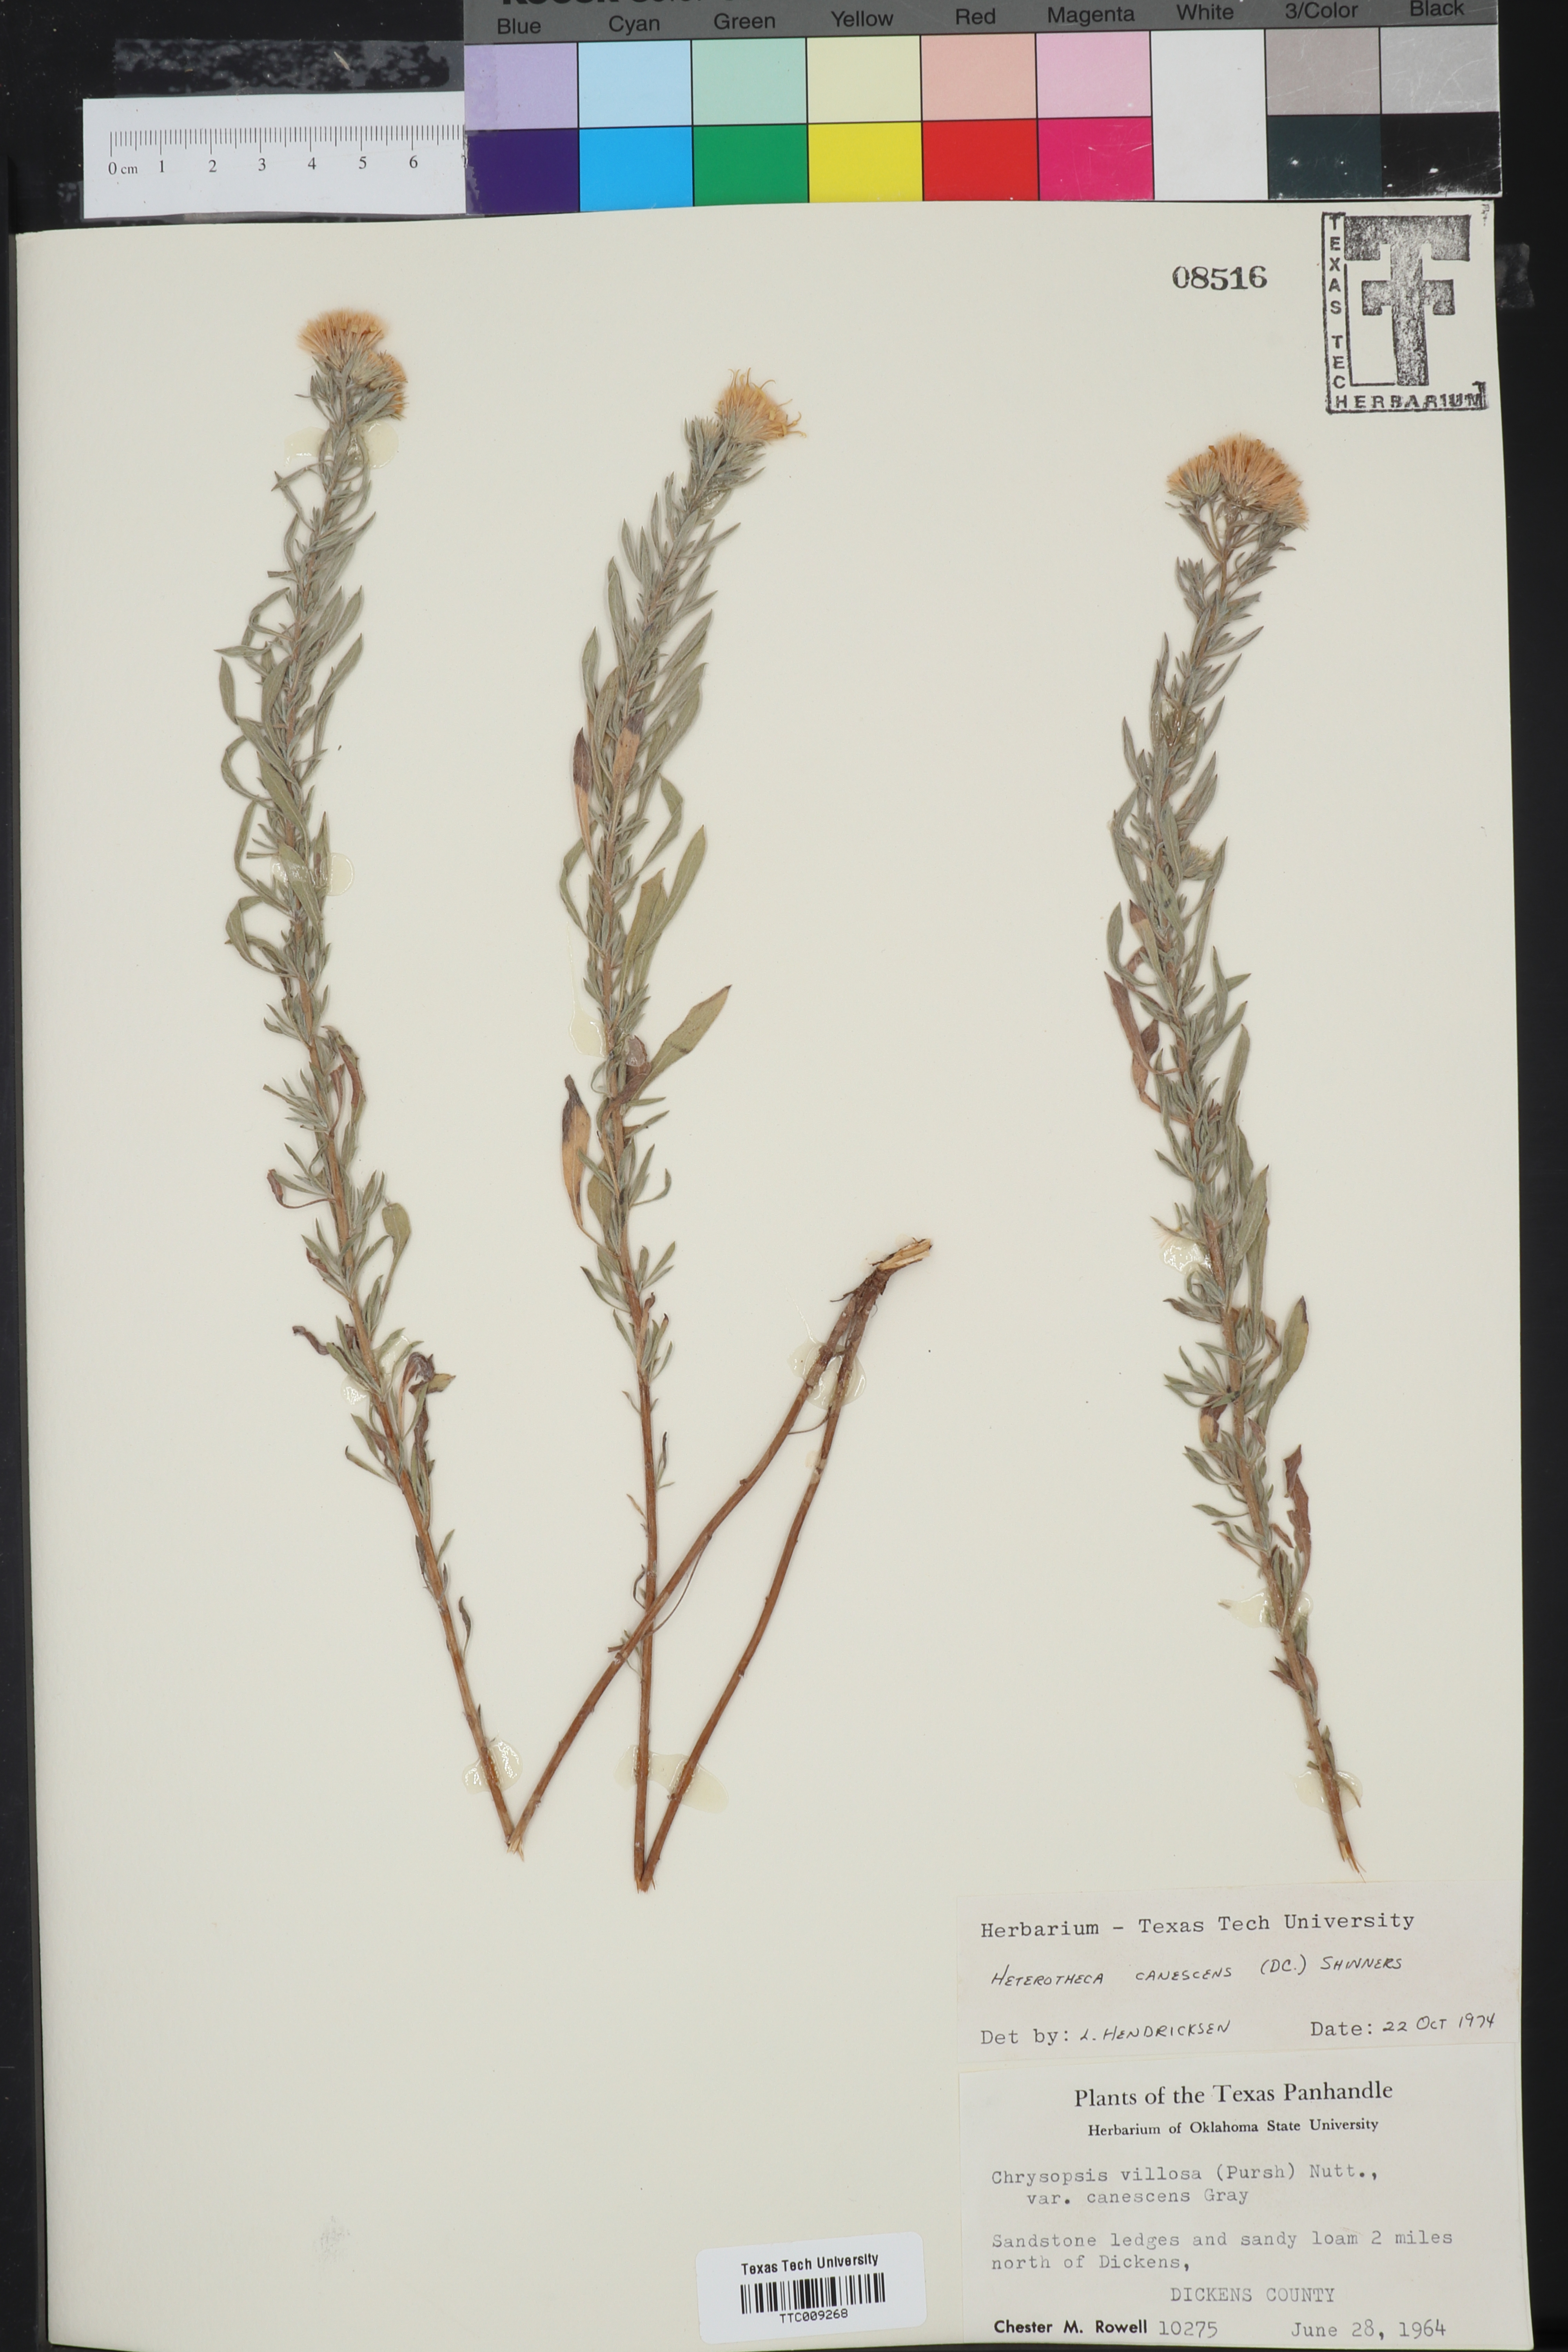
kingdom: Plantae
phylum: Tracheophyta
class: Magnoliopsida
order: Asterales
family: Asteraceae
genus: Heterotheca
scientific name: Heterotheca canescens
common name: Hoary golden-aster
